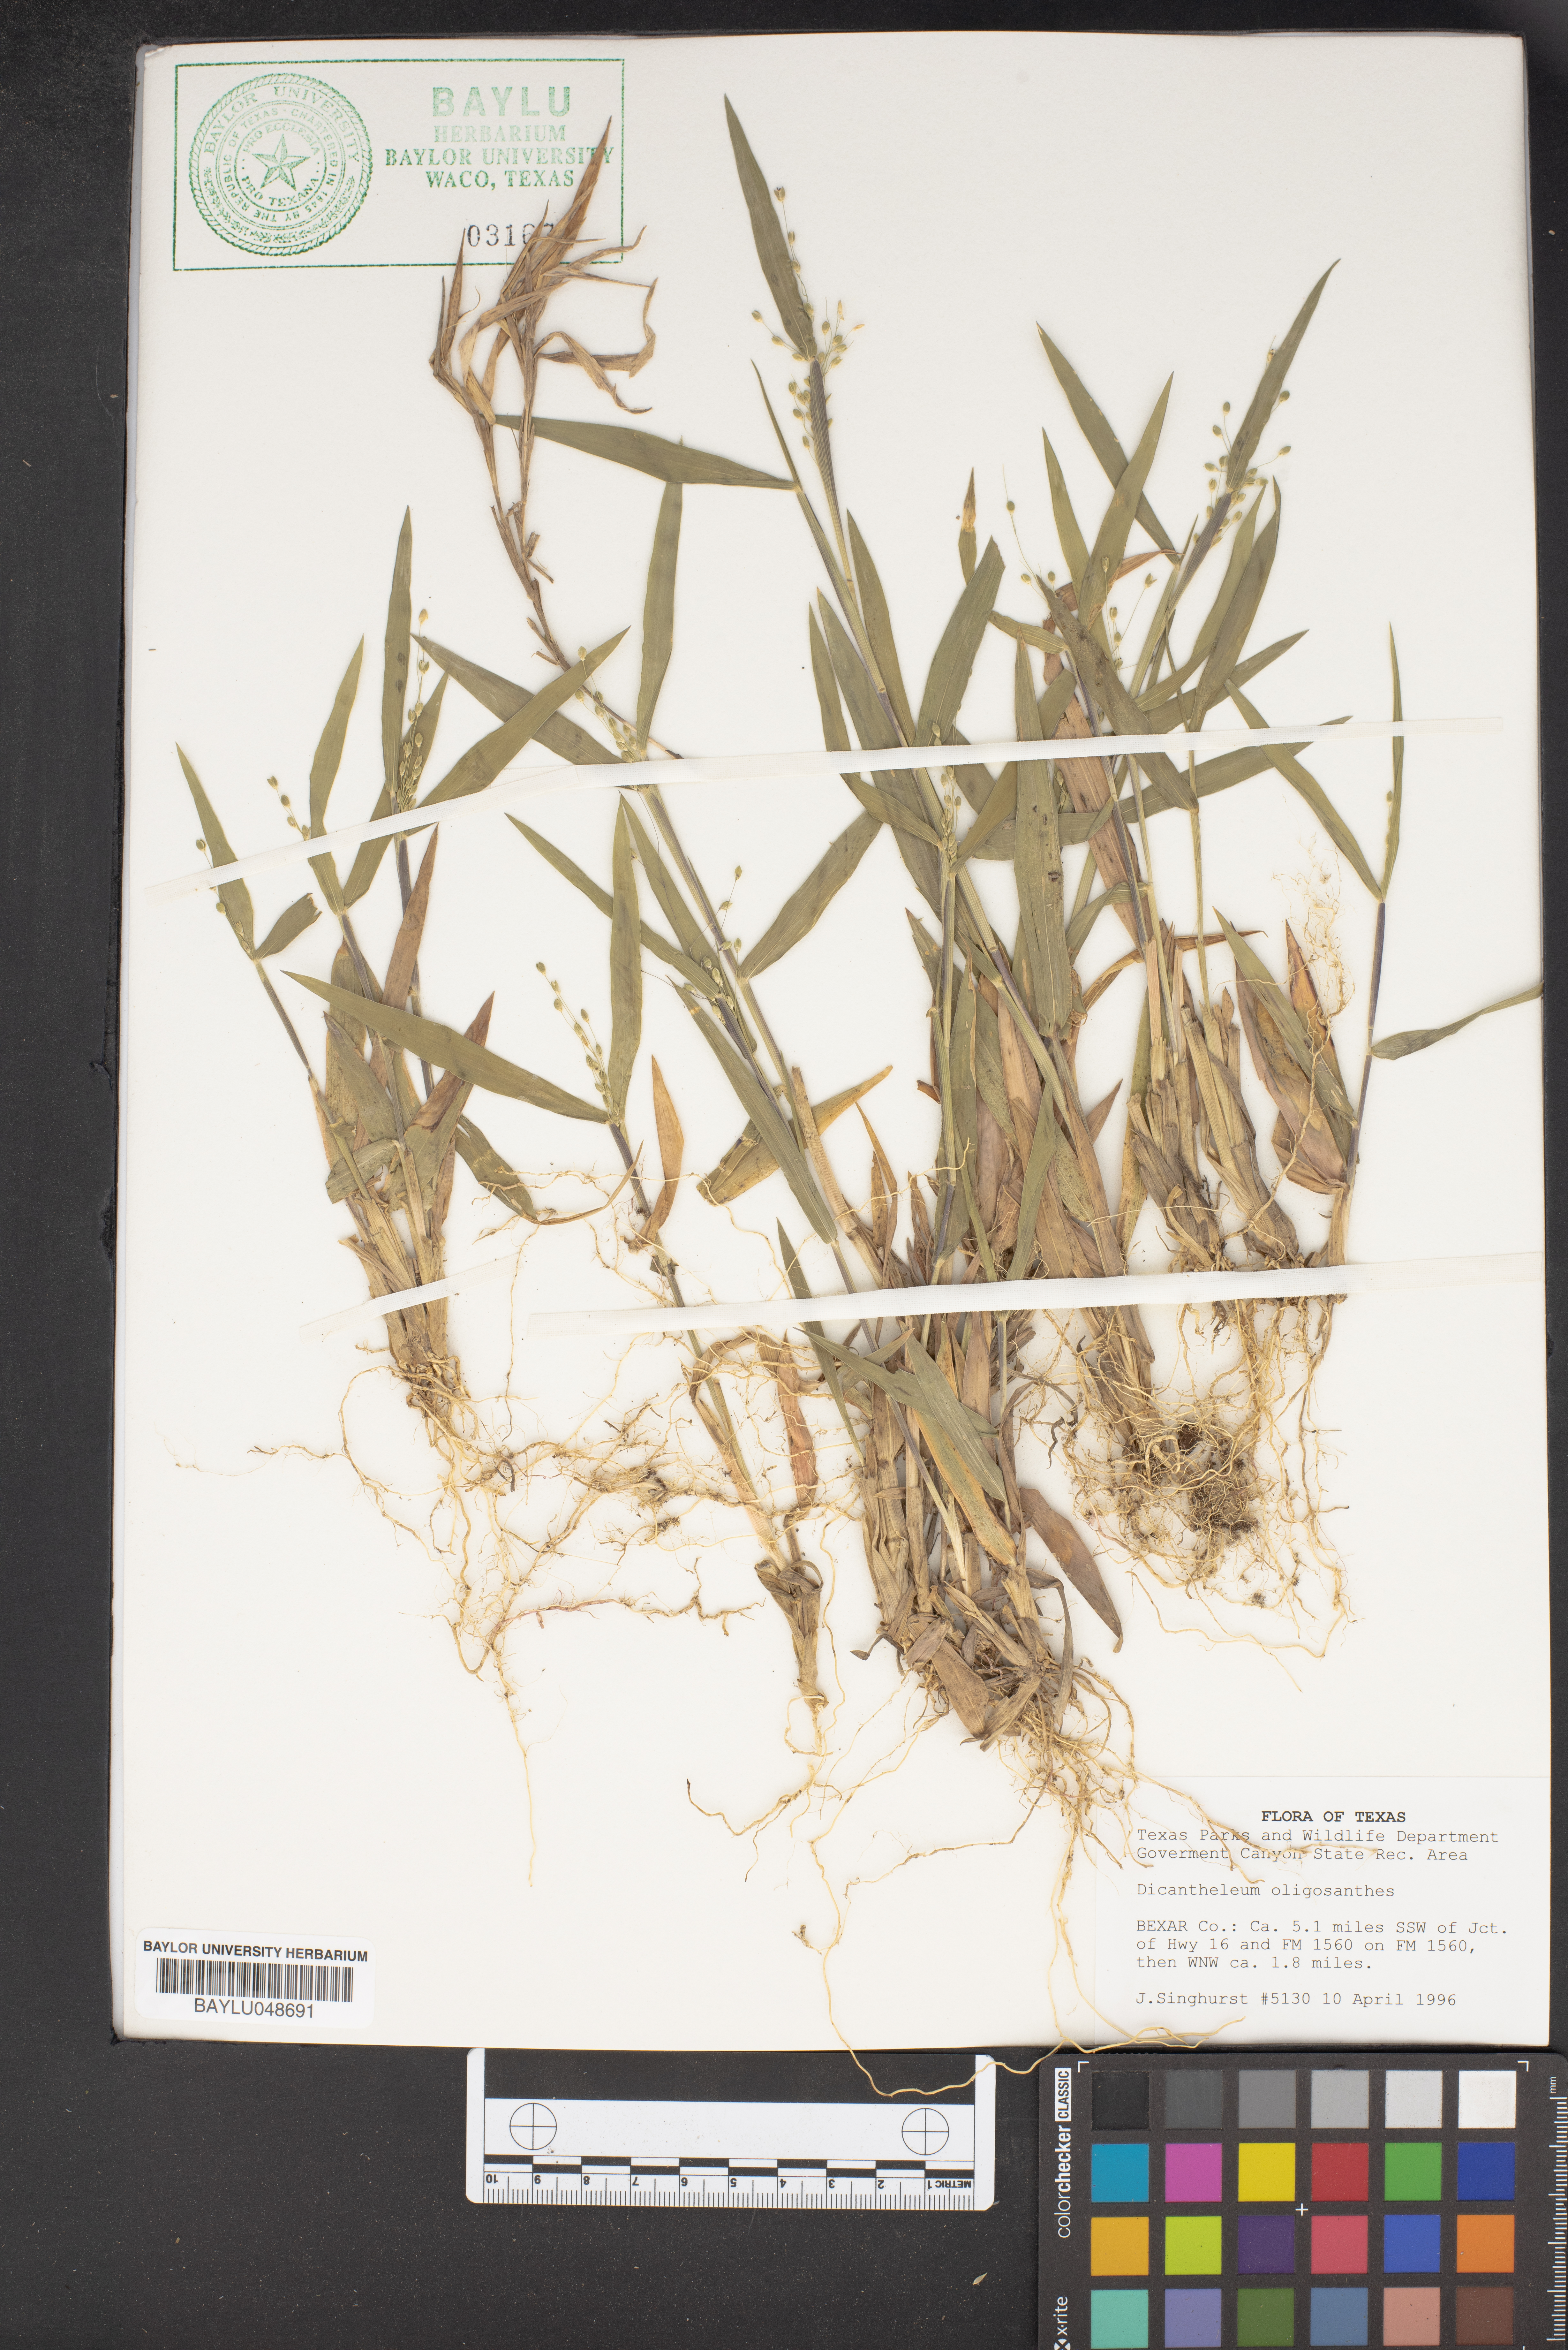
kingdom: Plantae
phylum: Tracheophyta
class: Liliopsida
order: Poales
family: Poaceae
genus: Dichanthelium
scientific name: Dichanthelium oligosanthes
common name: Few-anther obscuregrass
